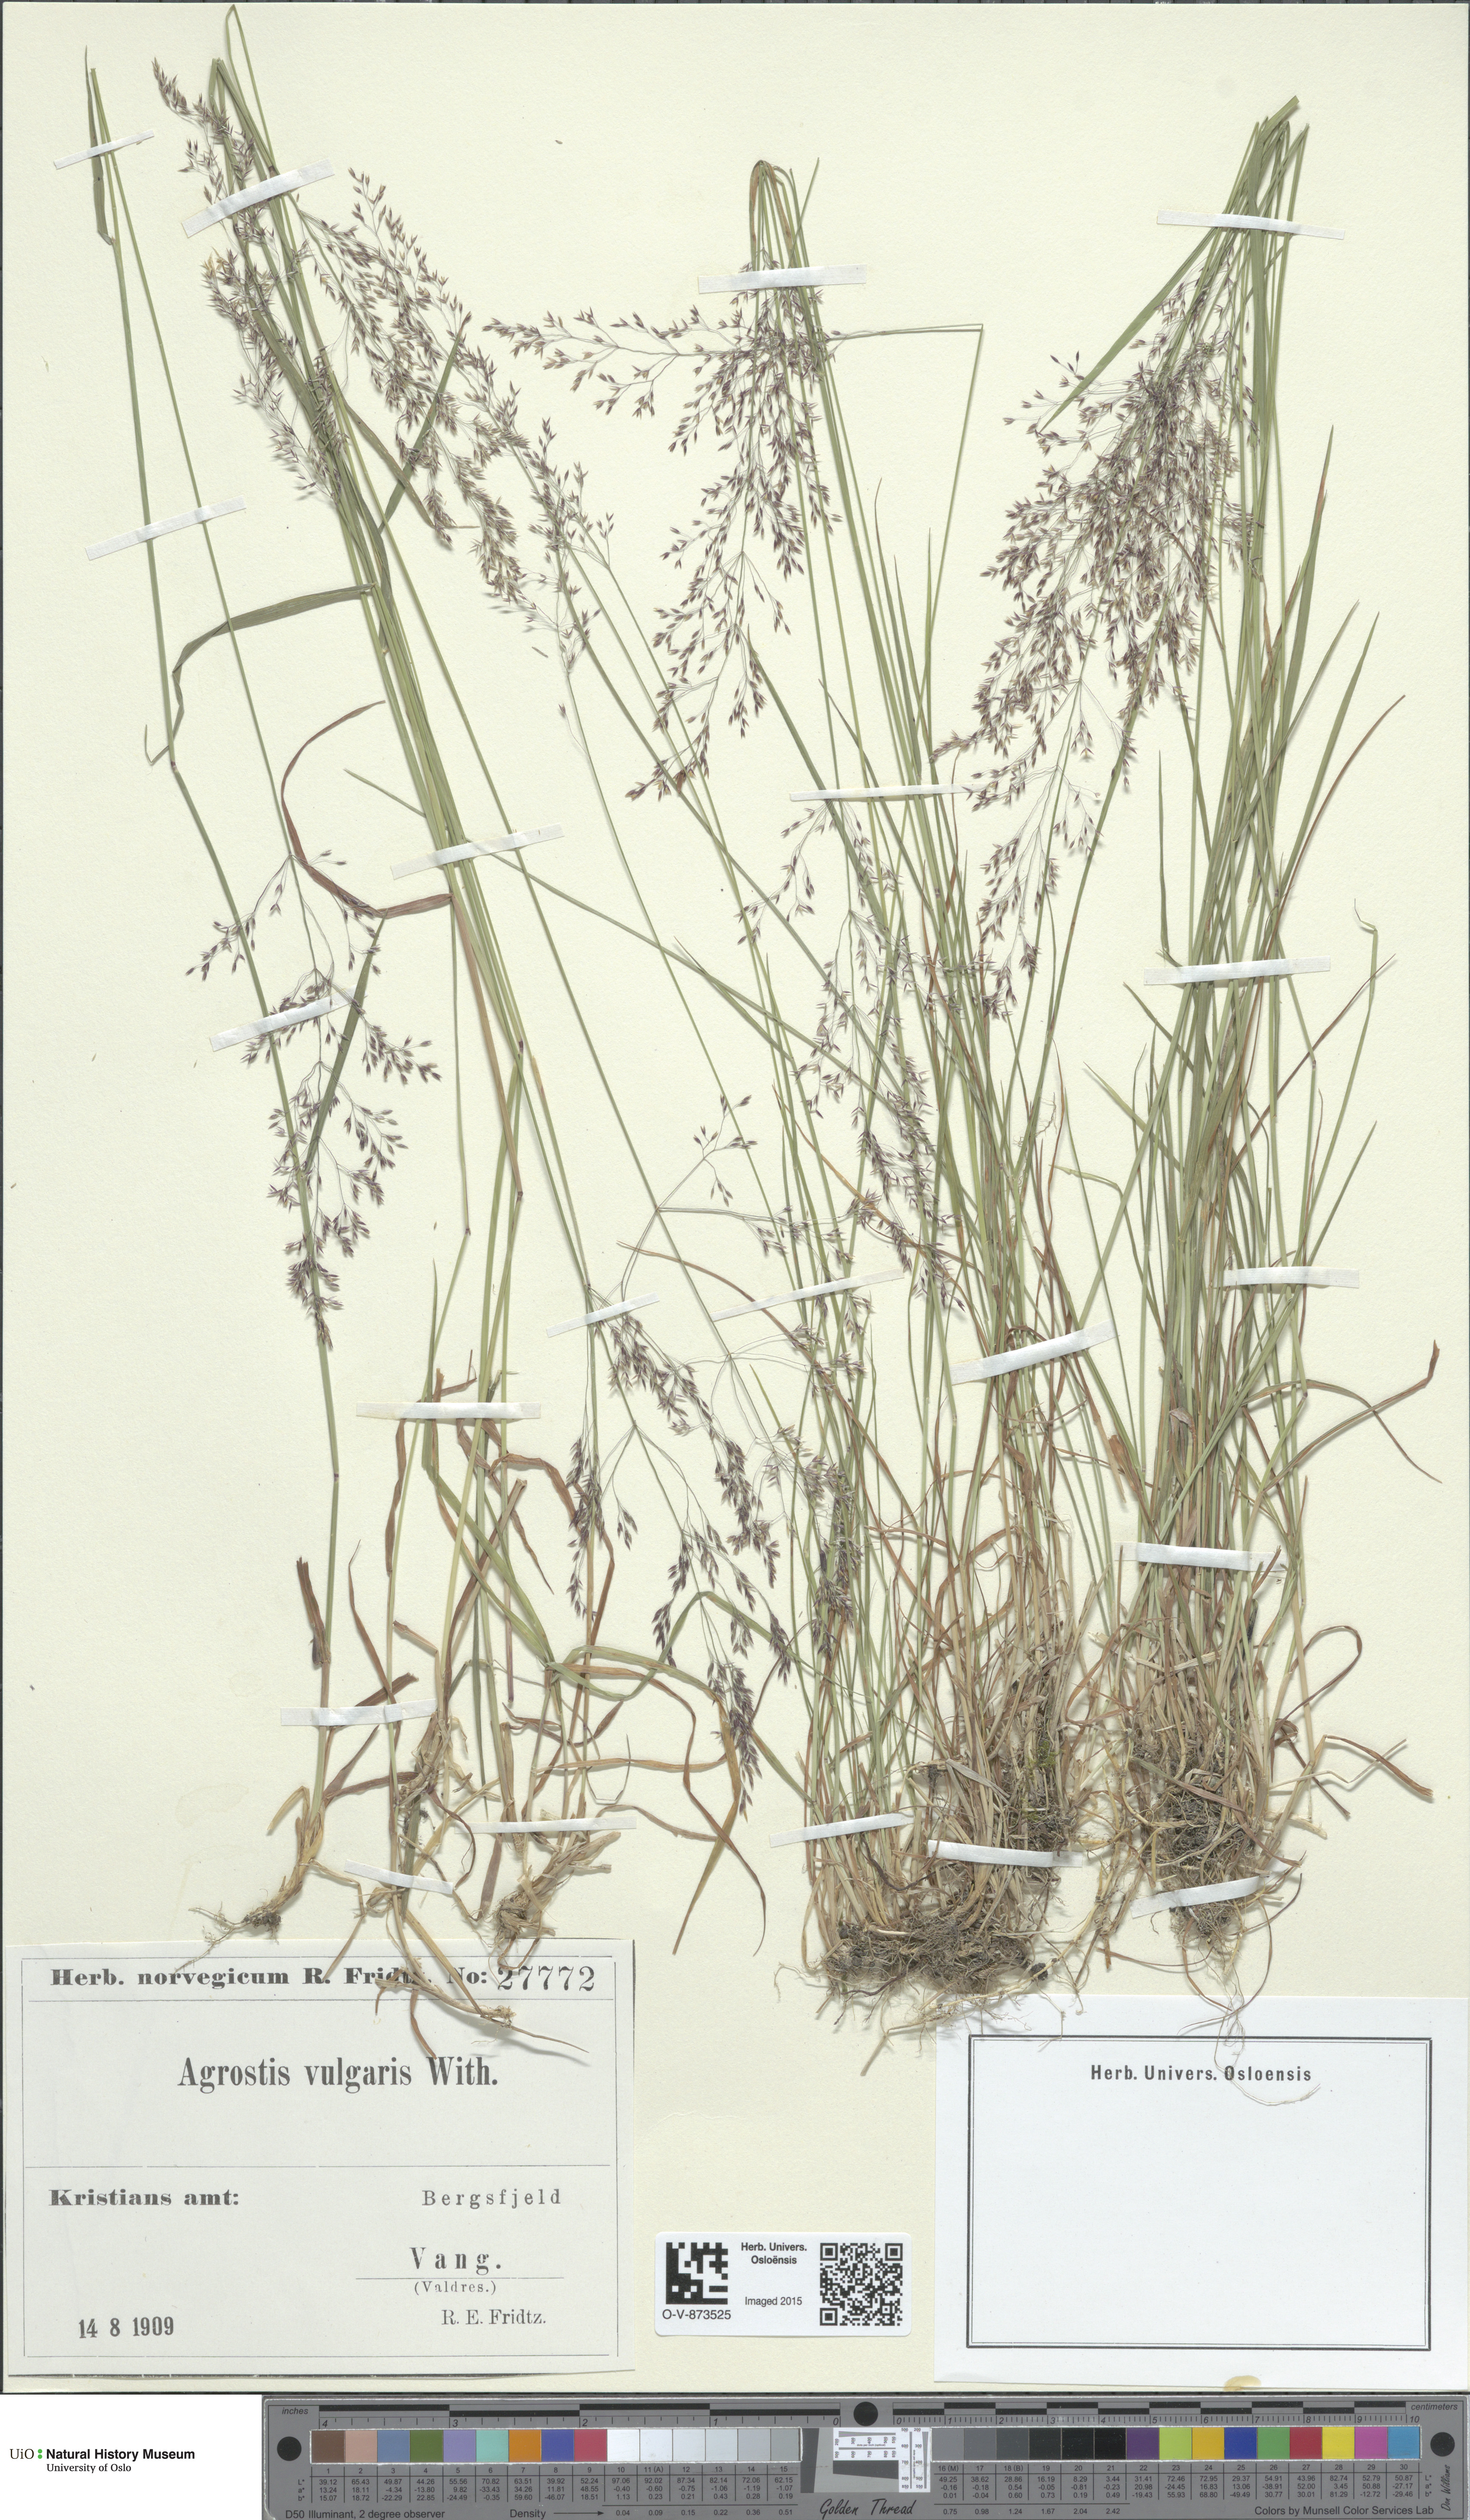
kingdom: Plantae
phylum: Tracheophyta
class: Liliopsida
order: Poales
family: Poaceae
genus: Agrostis
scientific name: Agrostis capillaris
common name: Colonial bentgrass
